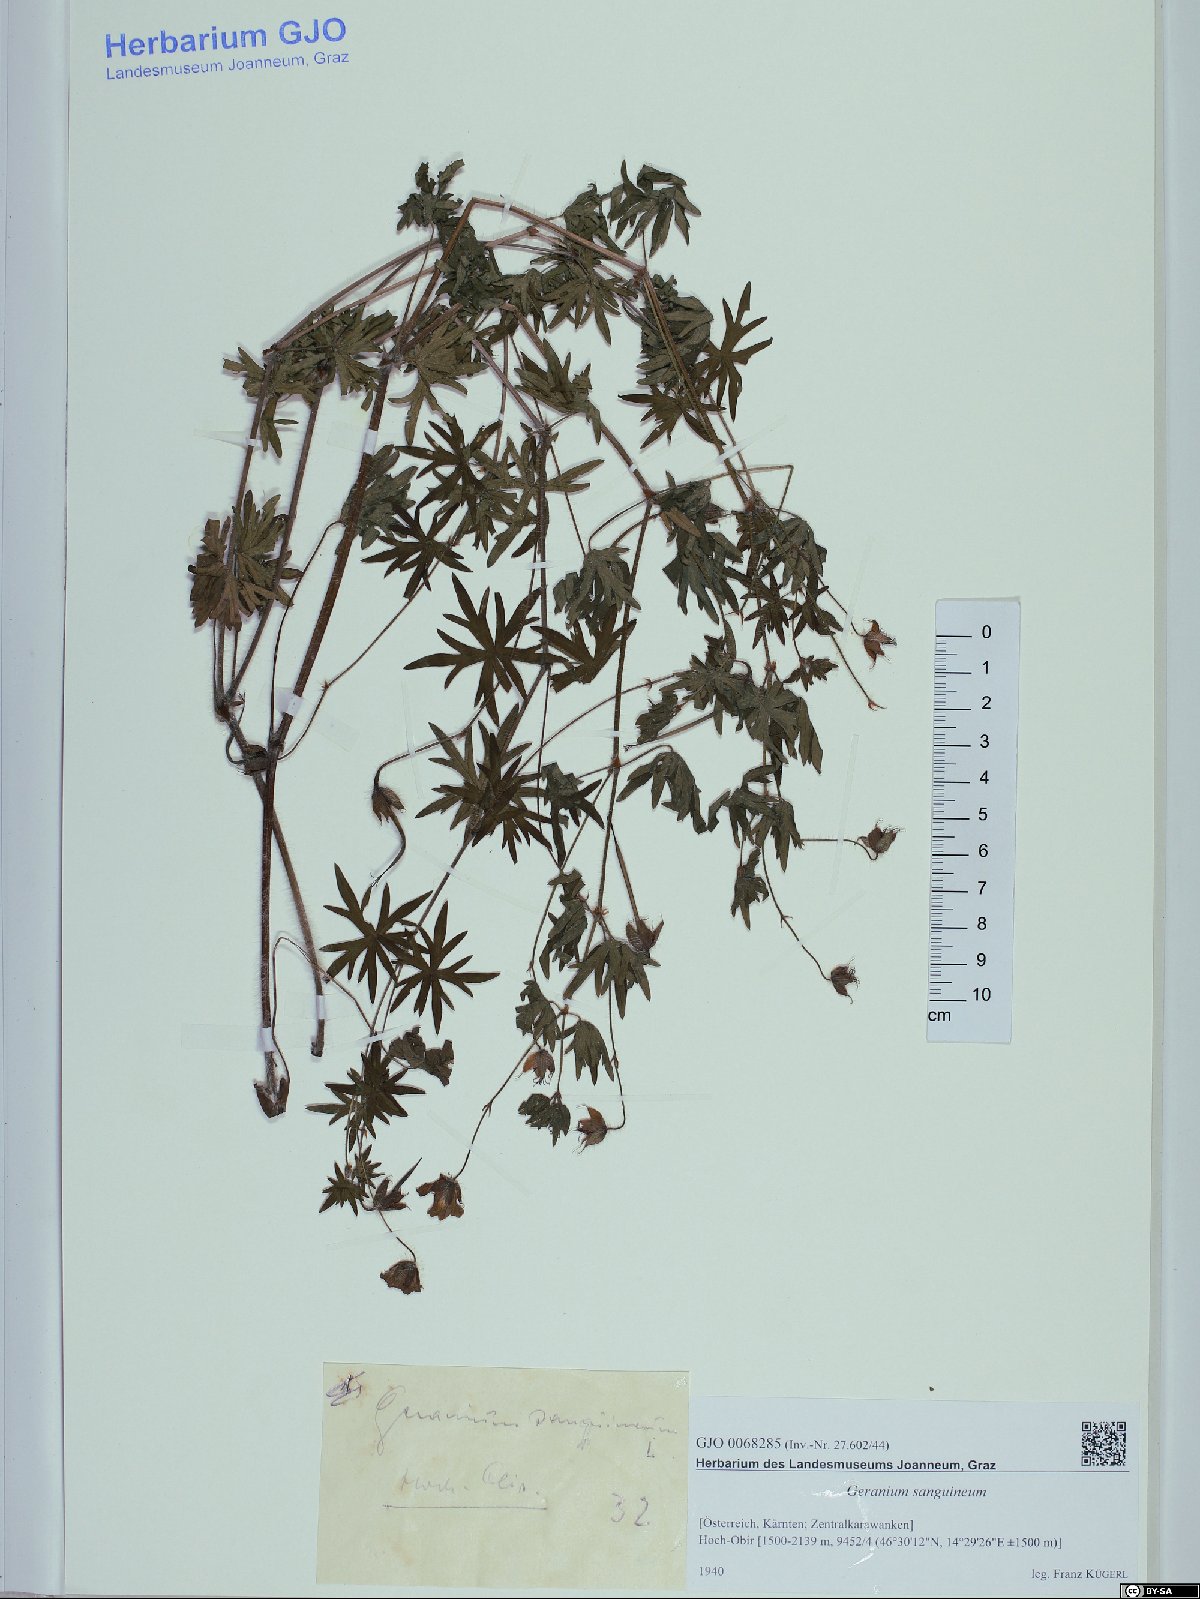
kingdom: Plantae
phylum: Tracheophyta
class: Magnoliopsida
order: Geraniales
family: Geraniaceae
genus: Geranium
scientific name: Geranium sanguineum
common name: Bloody crane's-bill
